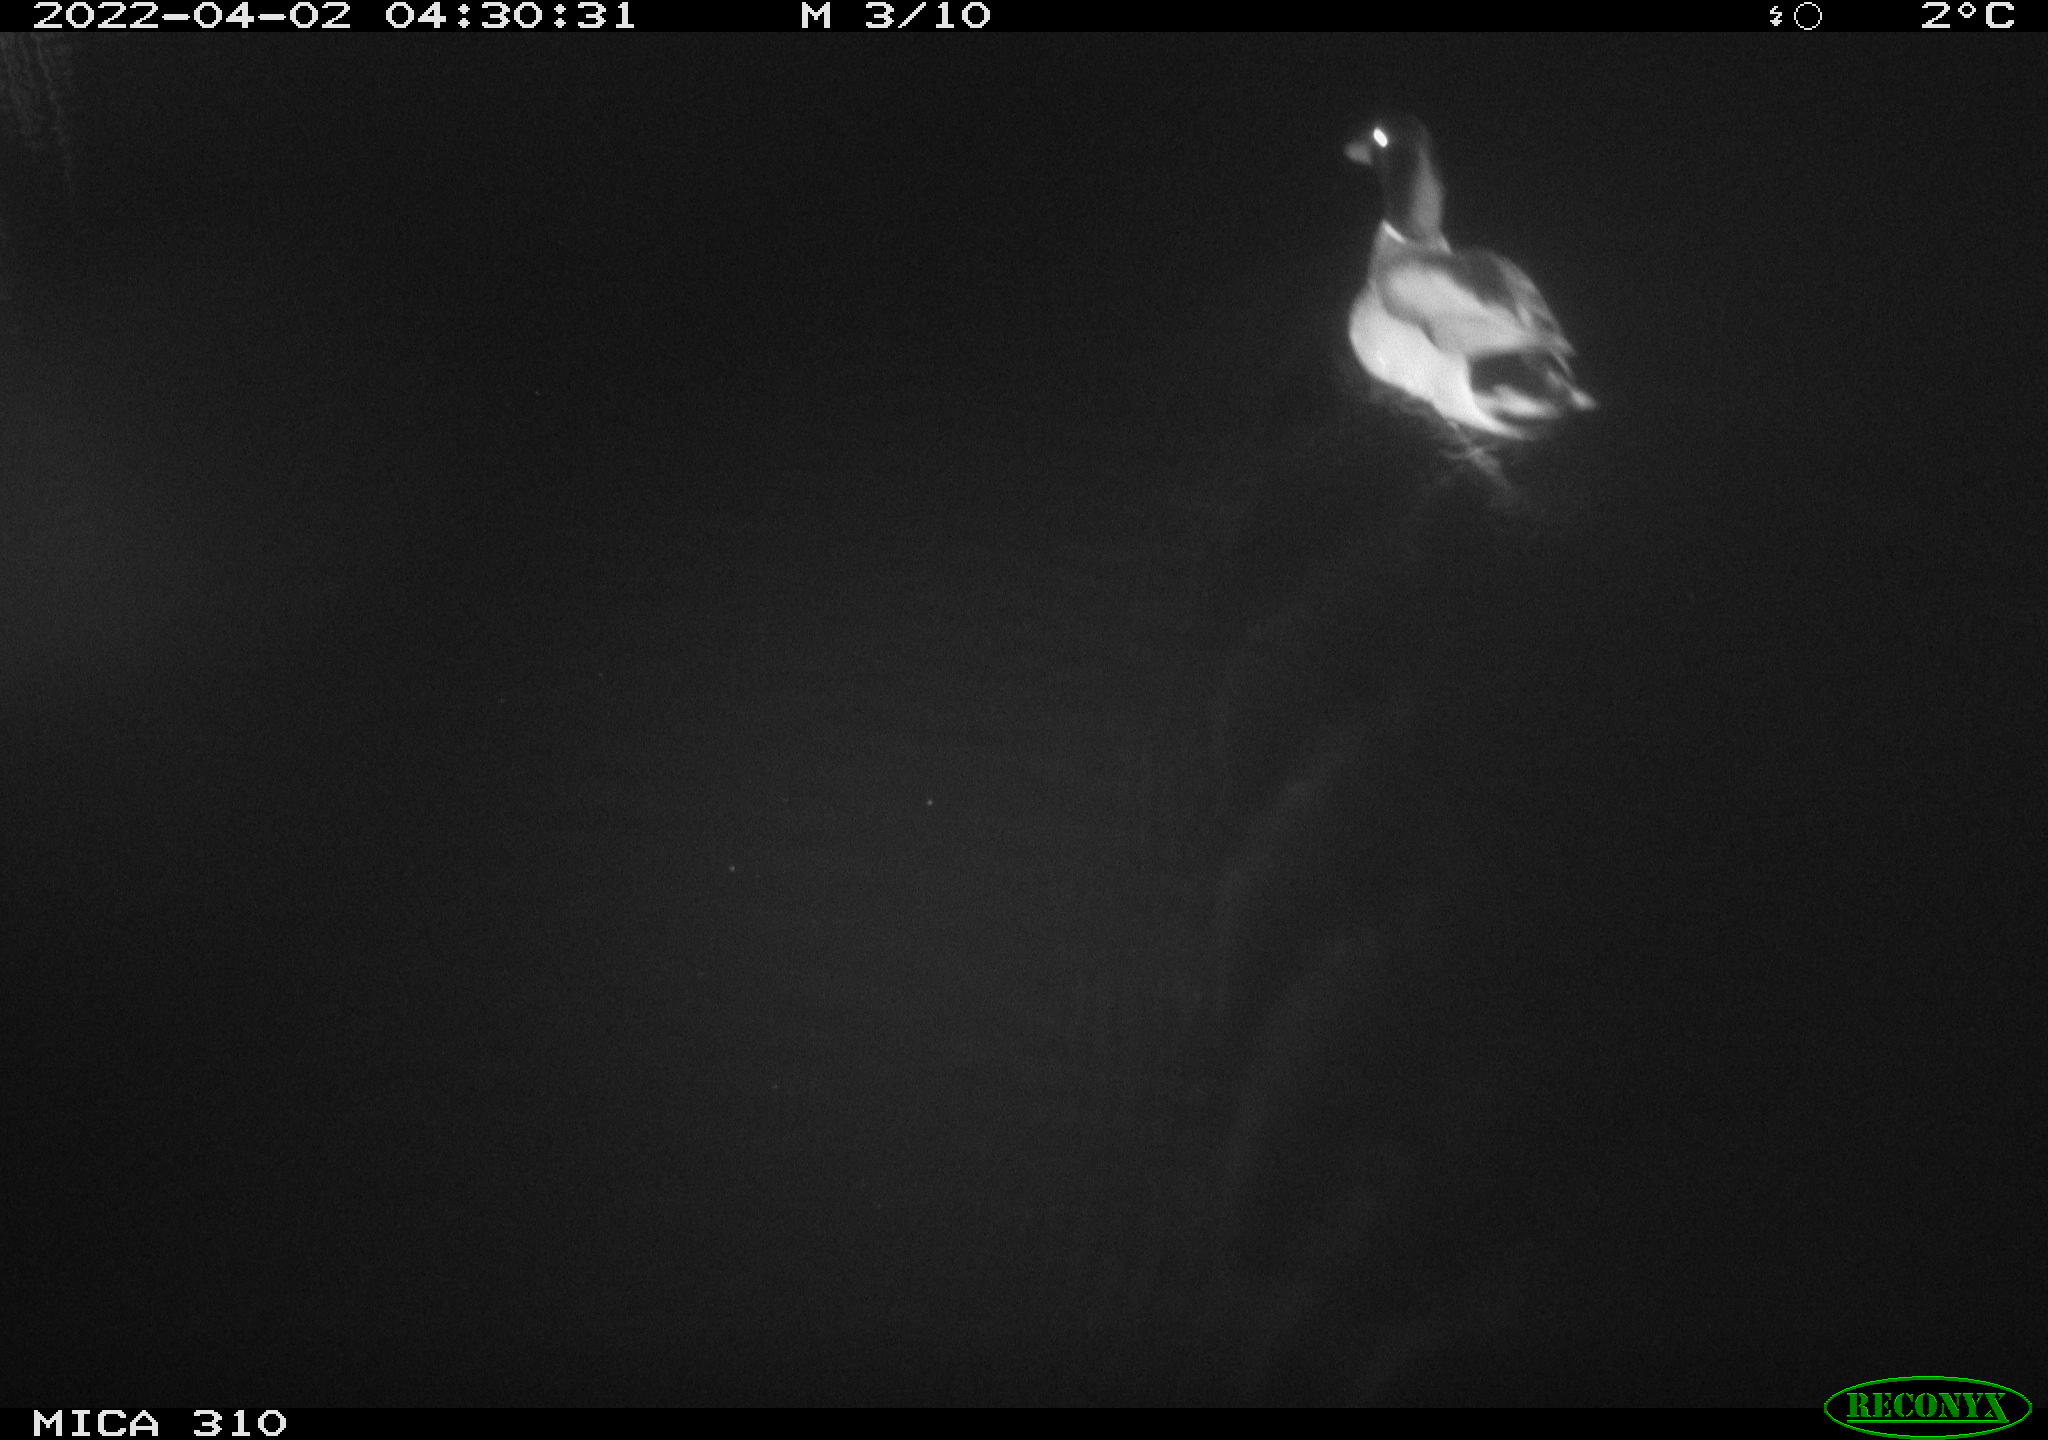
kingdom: Animalia
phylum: Chordata
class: Aves
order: Anseriformes
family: Anatidae
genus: Anas
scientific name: Anas platyrhynchos
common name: Mallard
